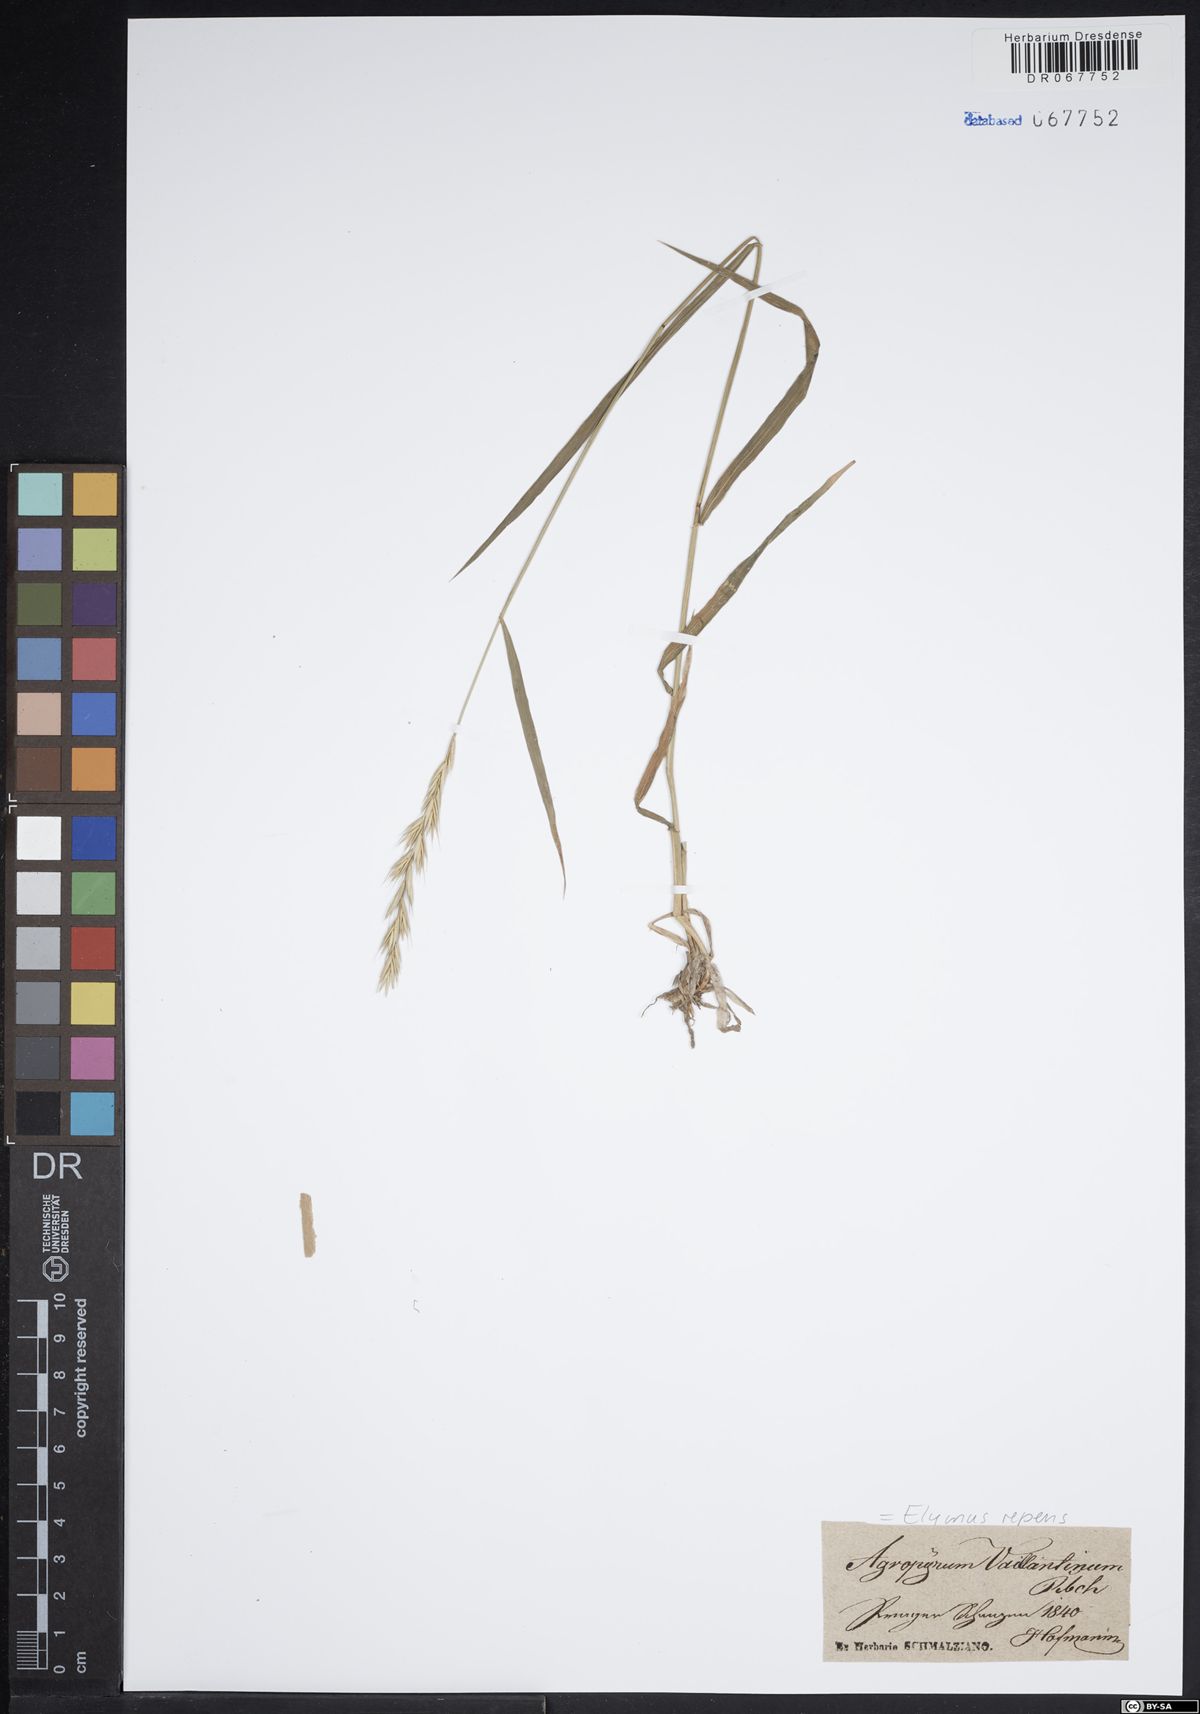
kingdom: Plantae
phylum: Tracheophyta
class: Liliopsida
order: Poales
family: Poaceae
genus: Elymus
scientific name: Elymus repens
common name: Quackgrass
